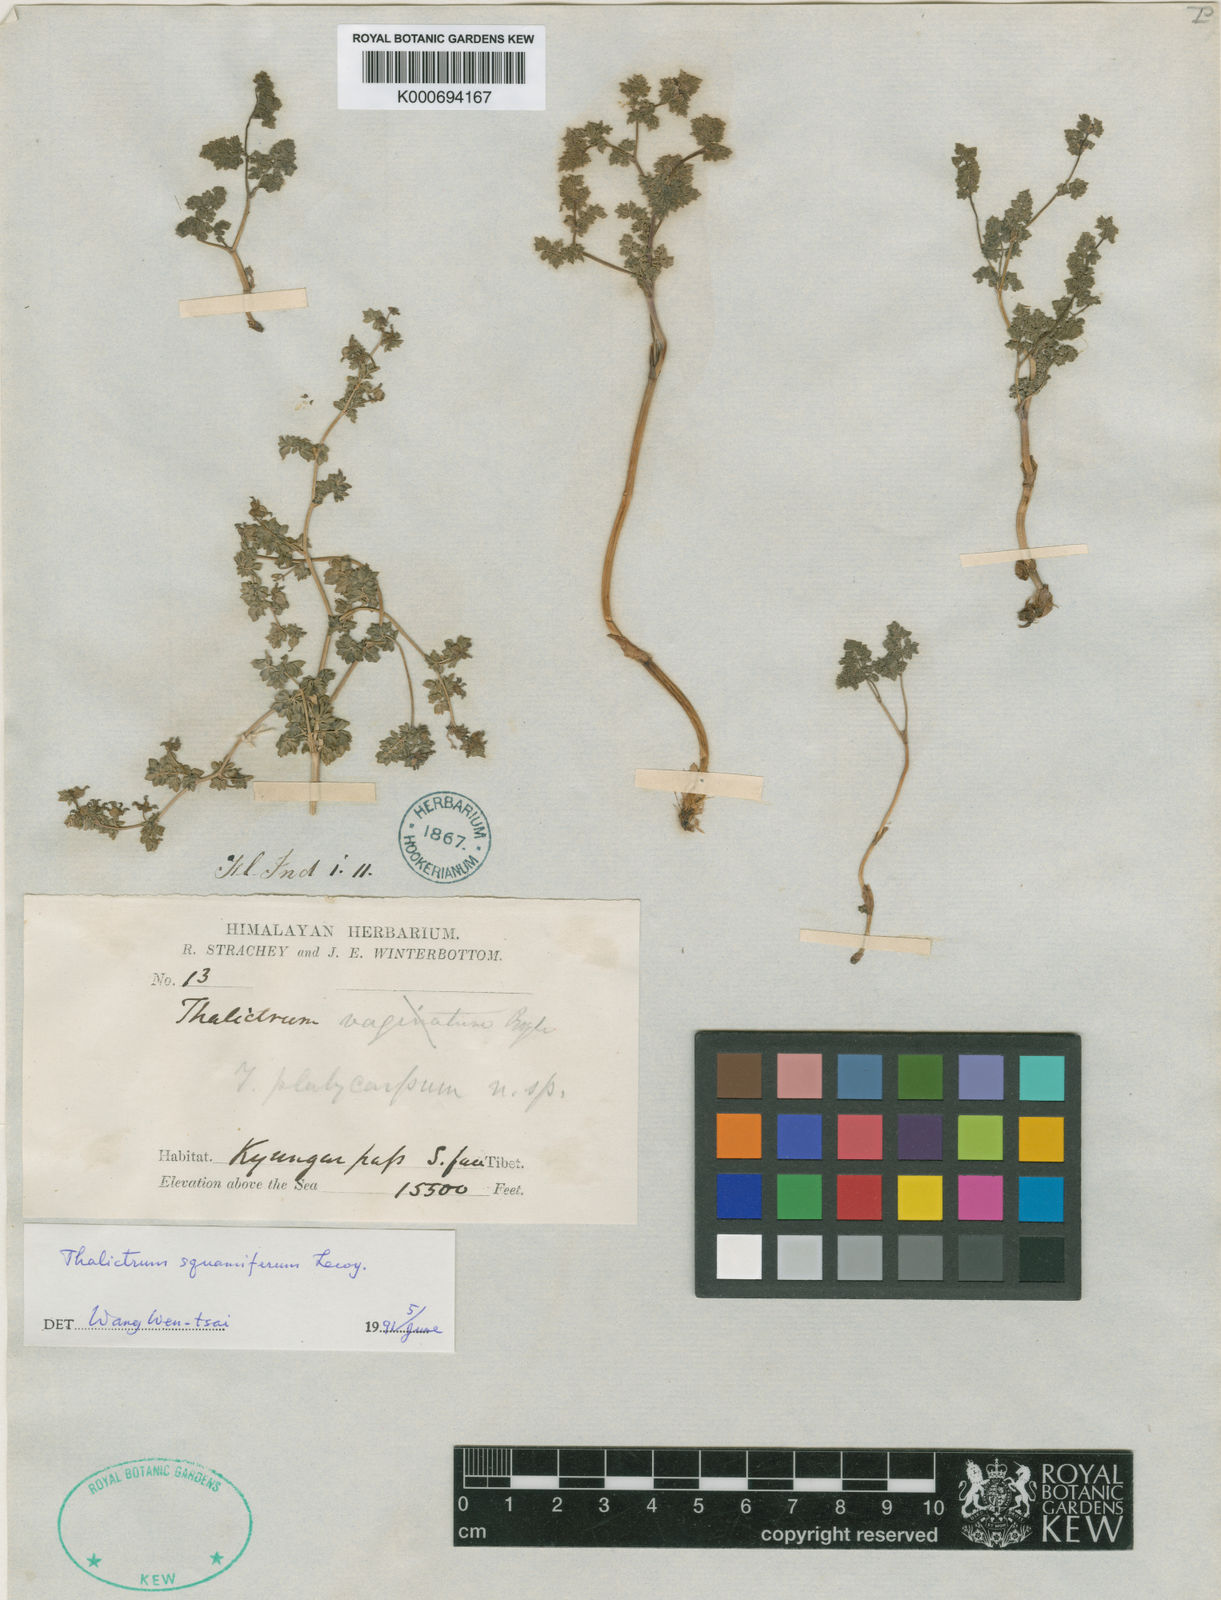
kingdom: Plantae
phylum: Tracheophyta
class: Magnoliopsida
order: Ranunculales
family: Ranunculaceae
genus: Thalictrum
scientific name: Thalictrum platycarpum
